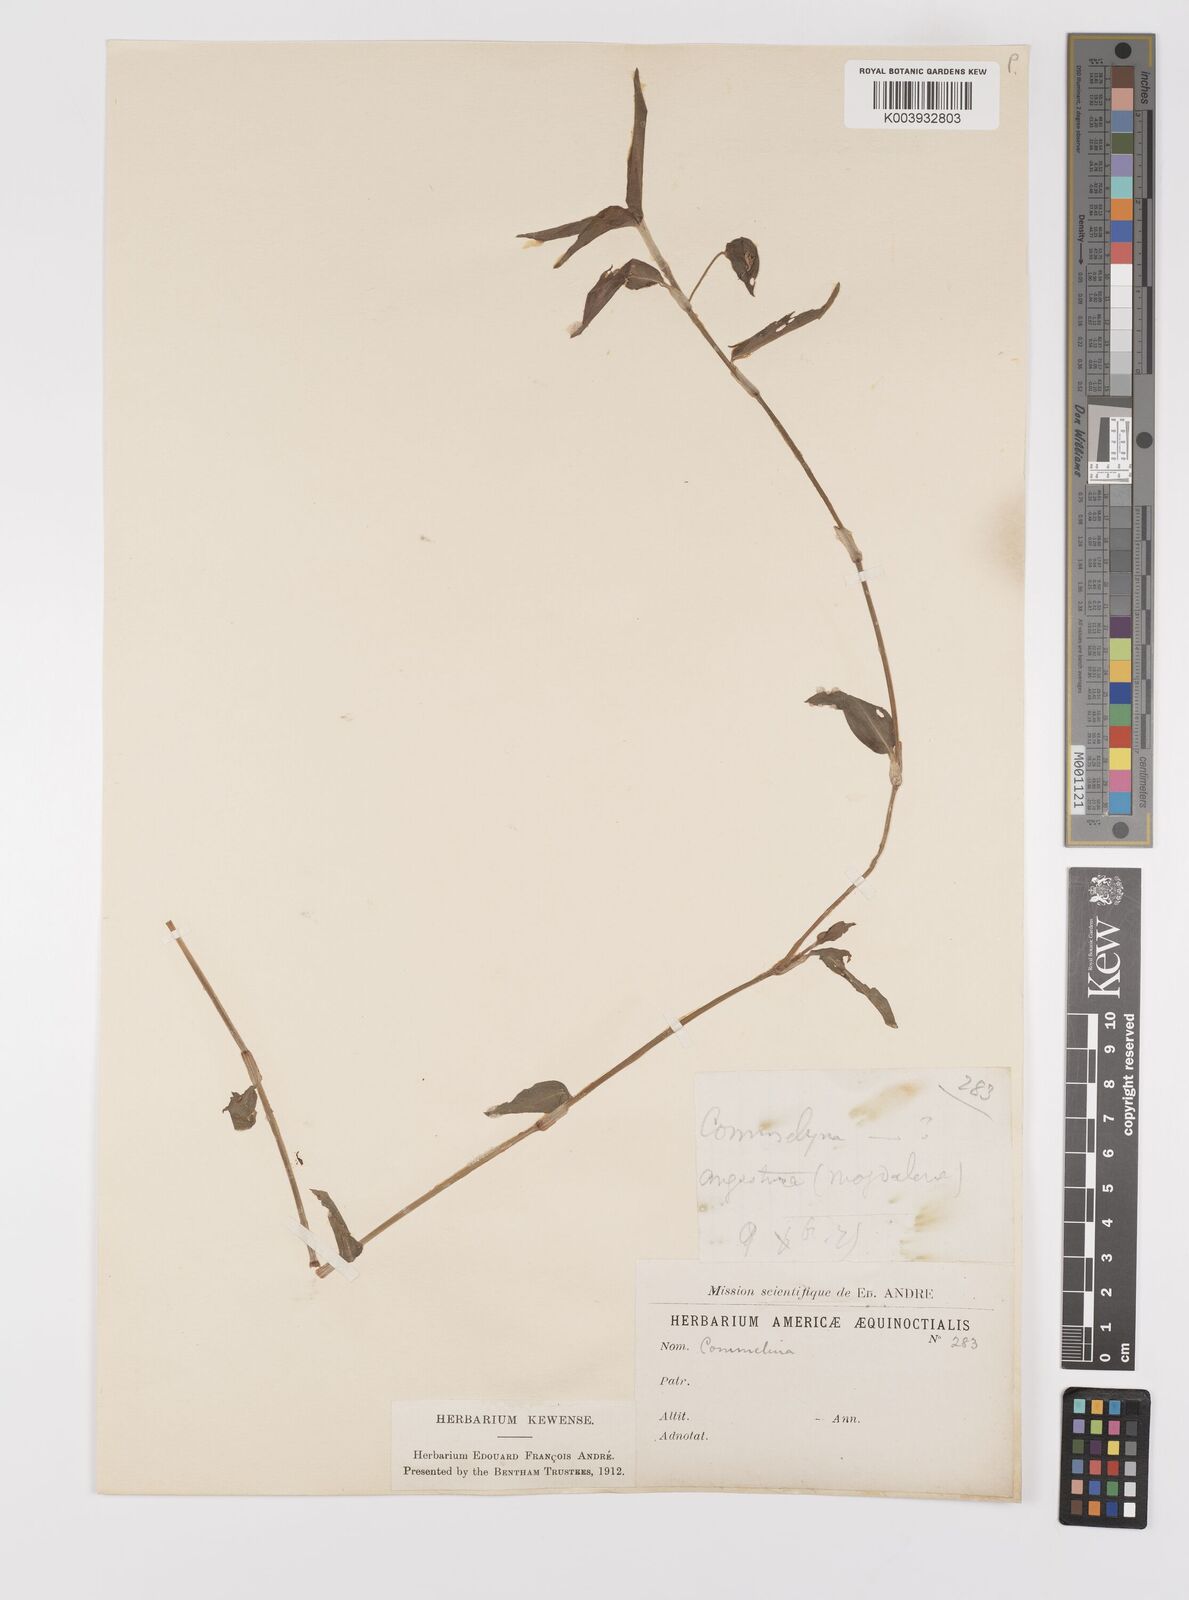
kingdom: Plantae
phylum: Tracheophyta
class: Liliopsida
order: Commelinales
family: Commelinaceae
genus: Commelina
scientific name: Commelina
